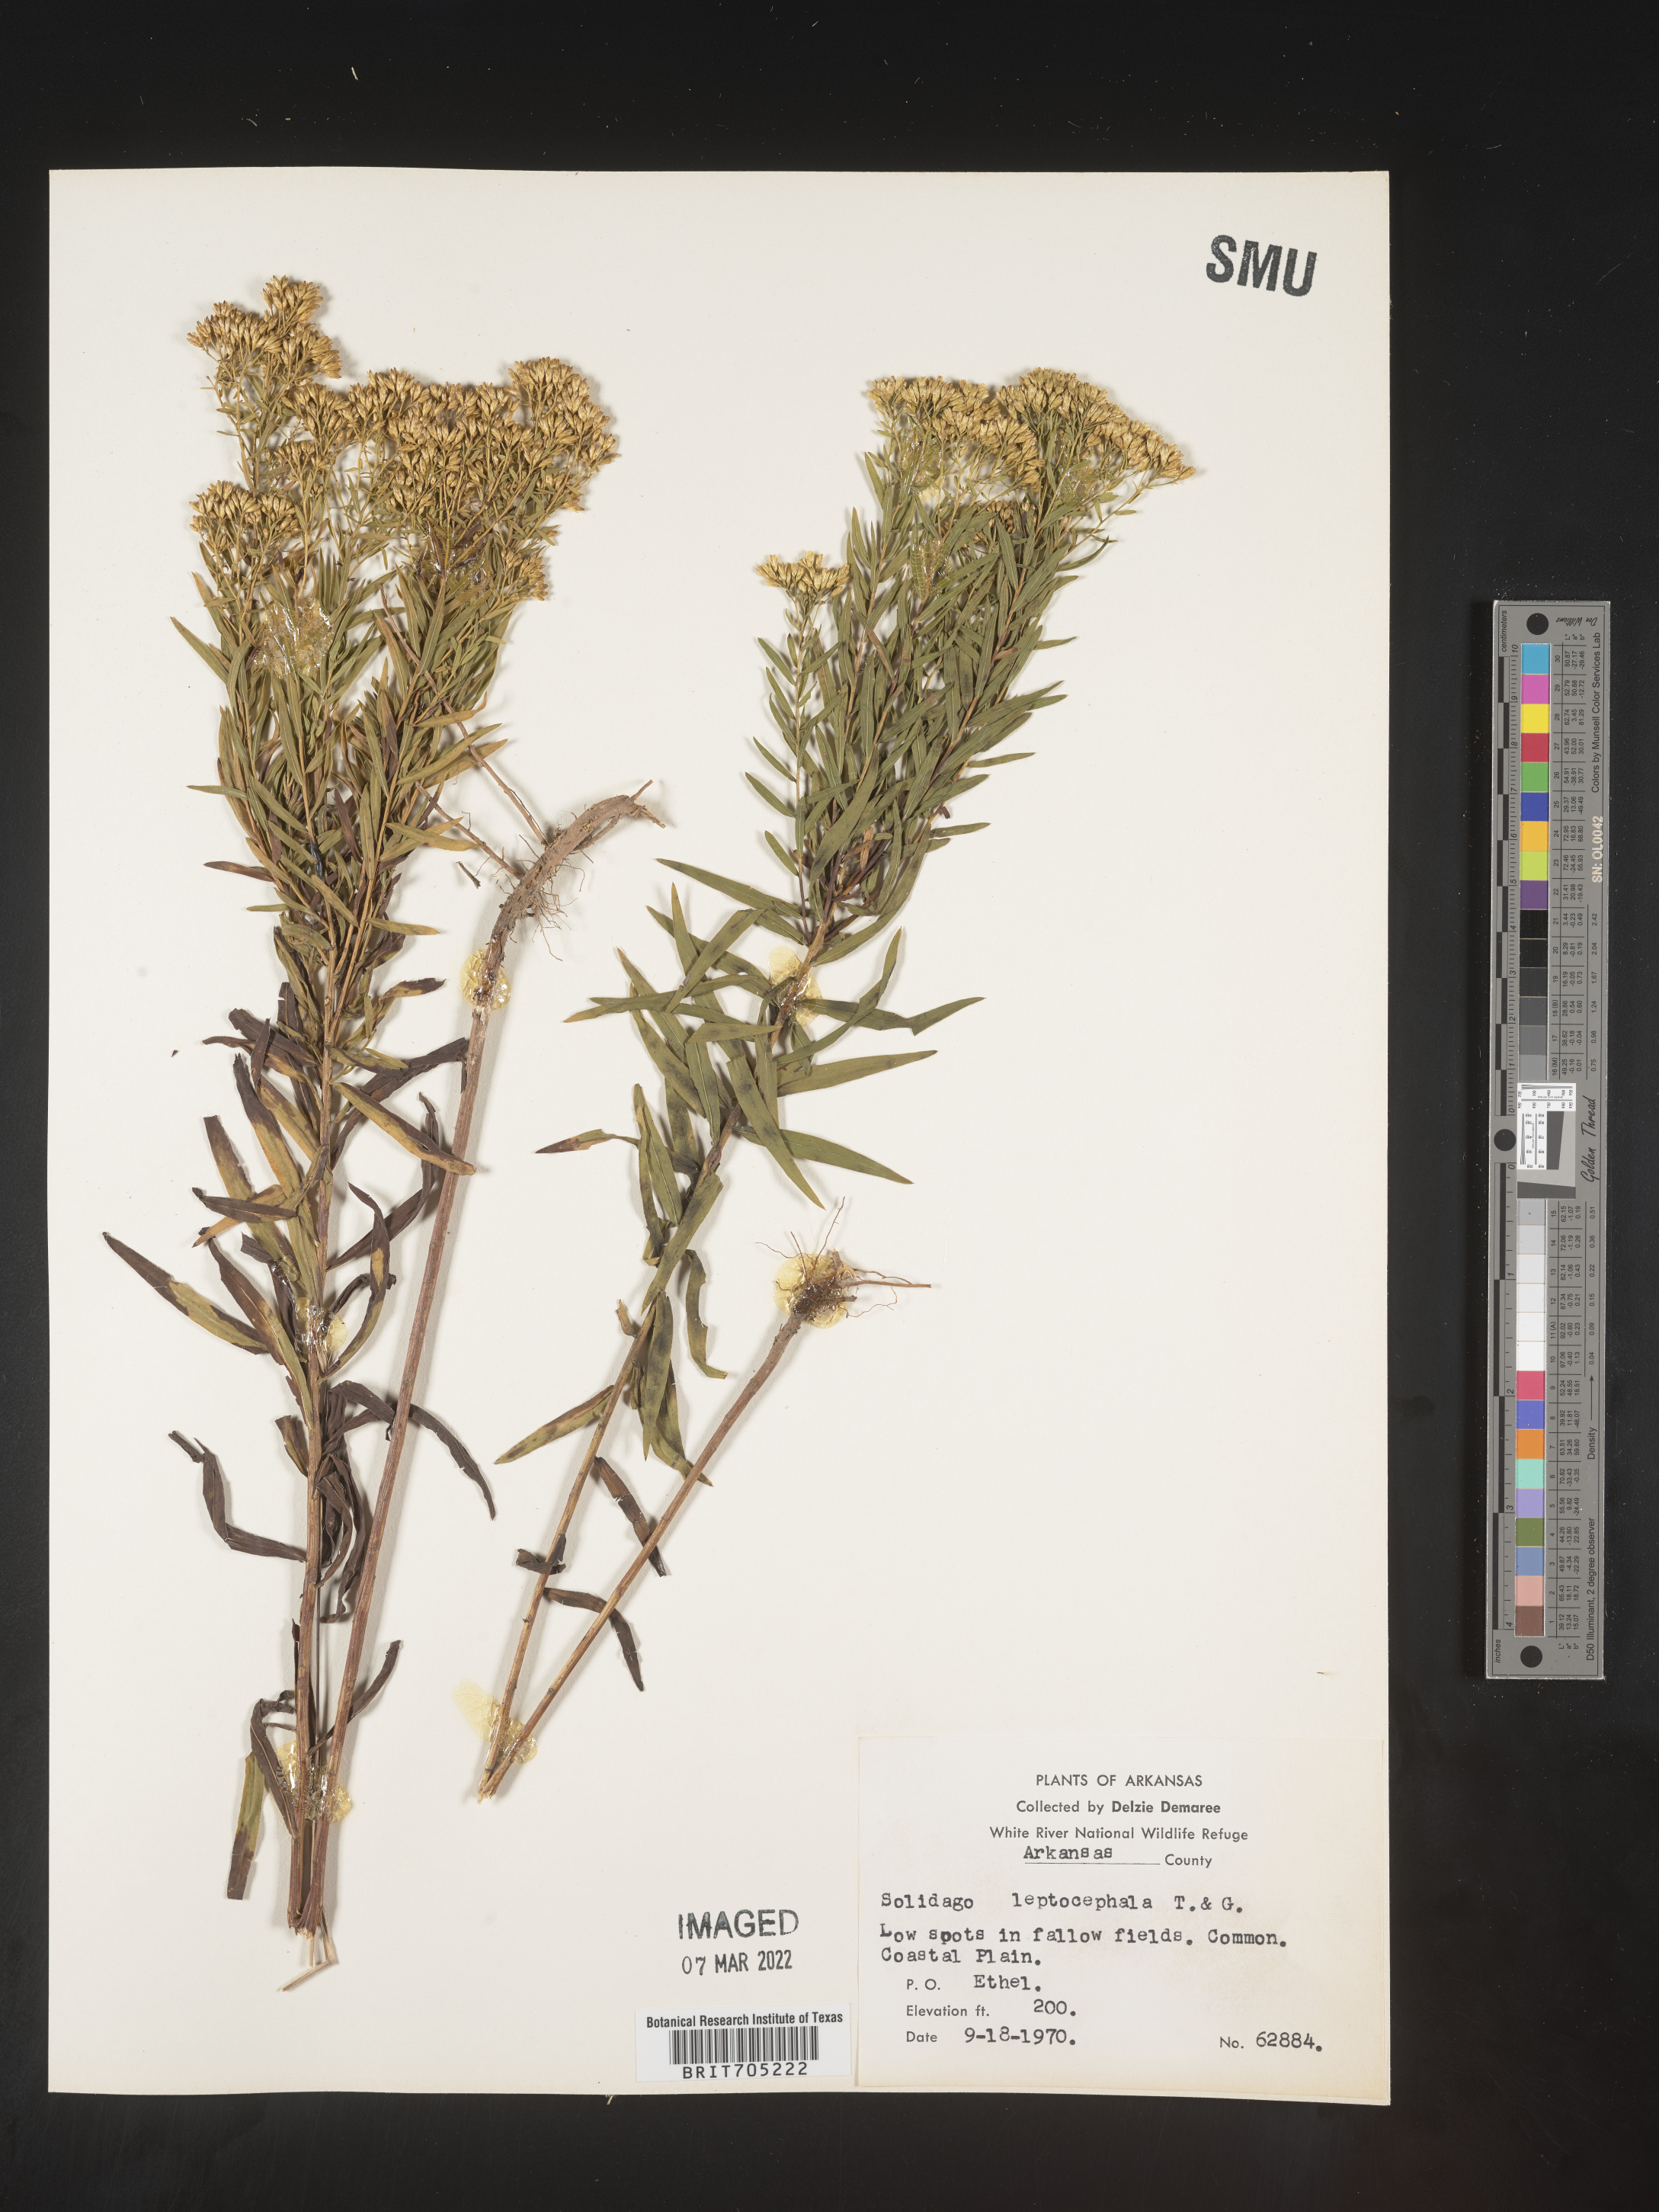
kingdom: Plantae
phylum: Tracheophyta
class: Magnoliopsida
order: Asterales
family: Asteraceae
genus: Euthamia
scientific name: Euthamia leptocephala
